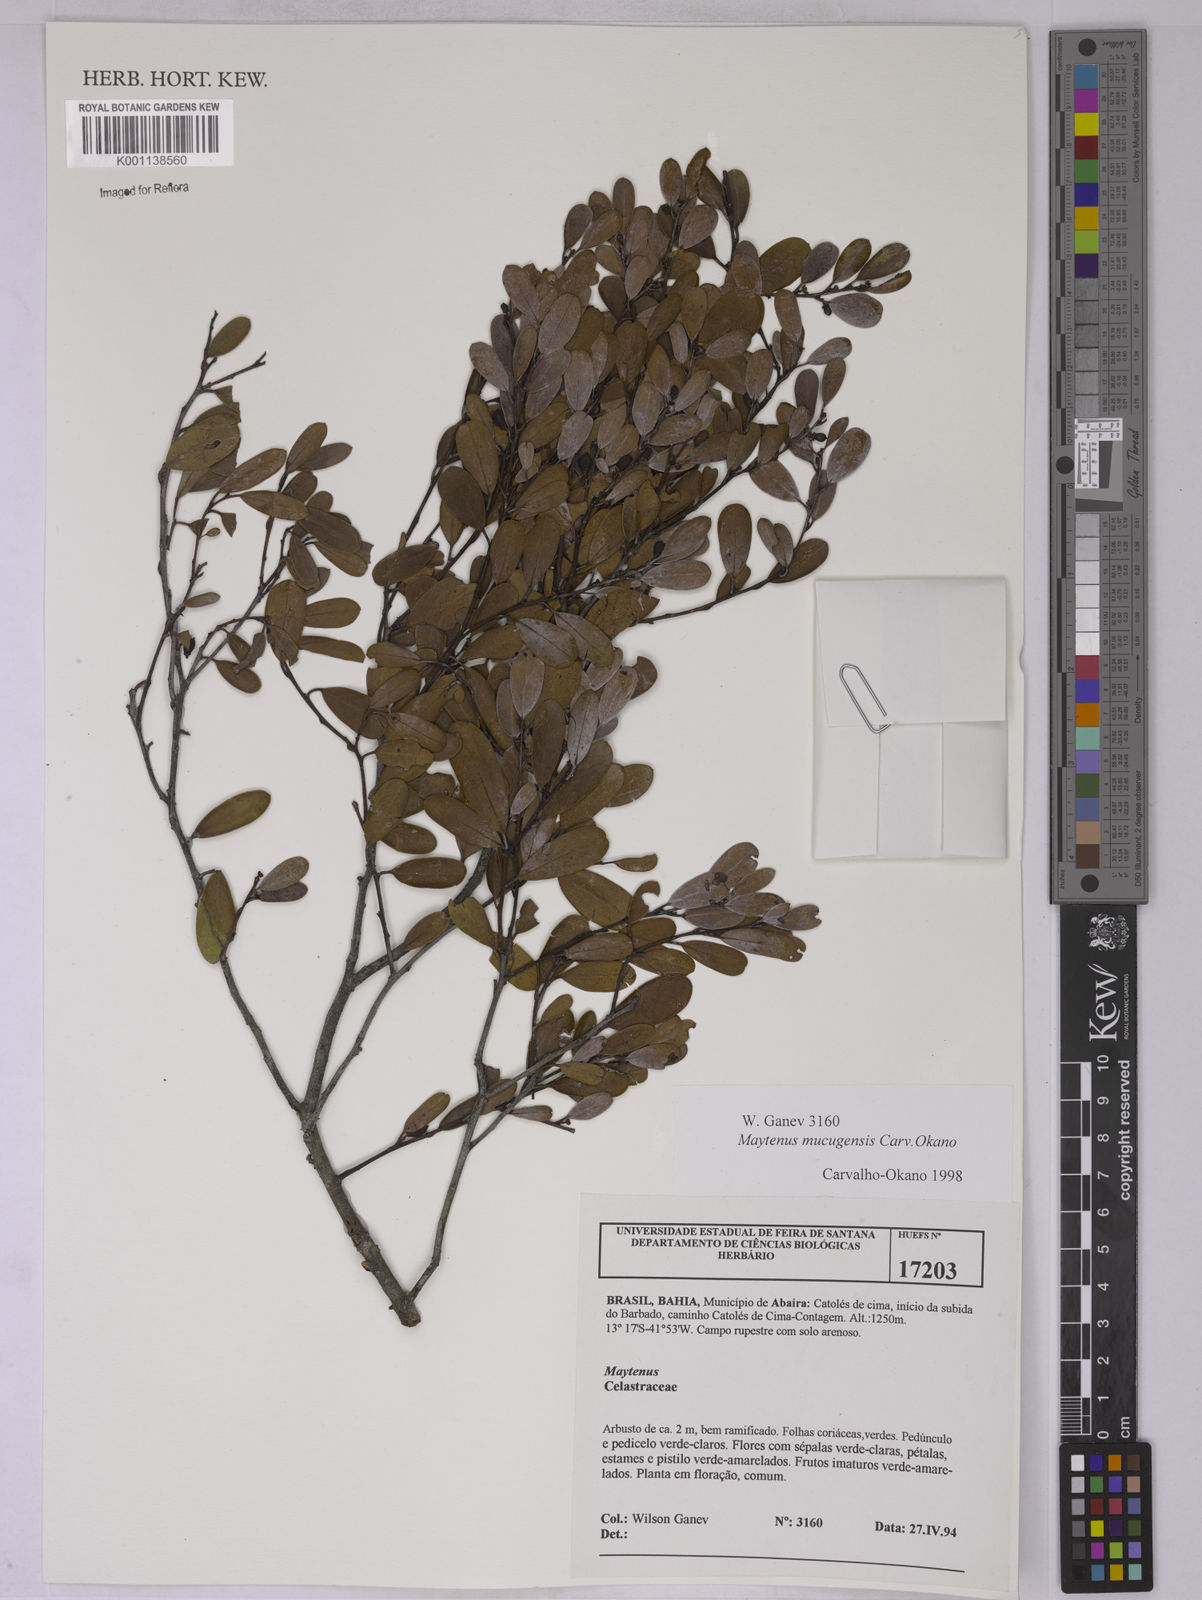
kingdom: Plantae
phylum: Tracheophyta
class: Magnoliopsida
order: Celastrales
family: Celastraceae
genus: Monteverdia
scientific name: Monteverdia mucugensis
